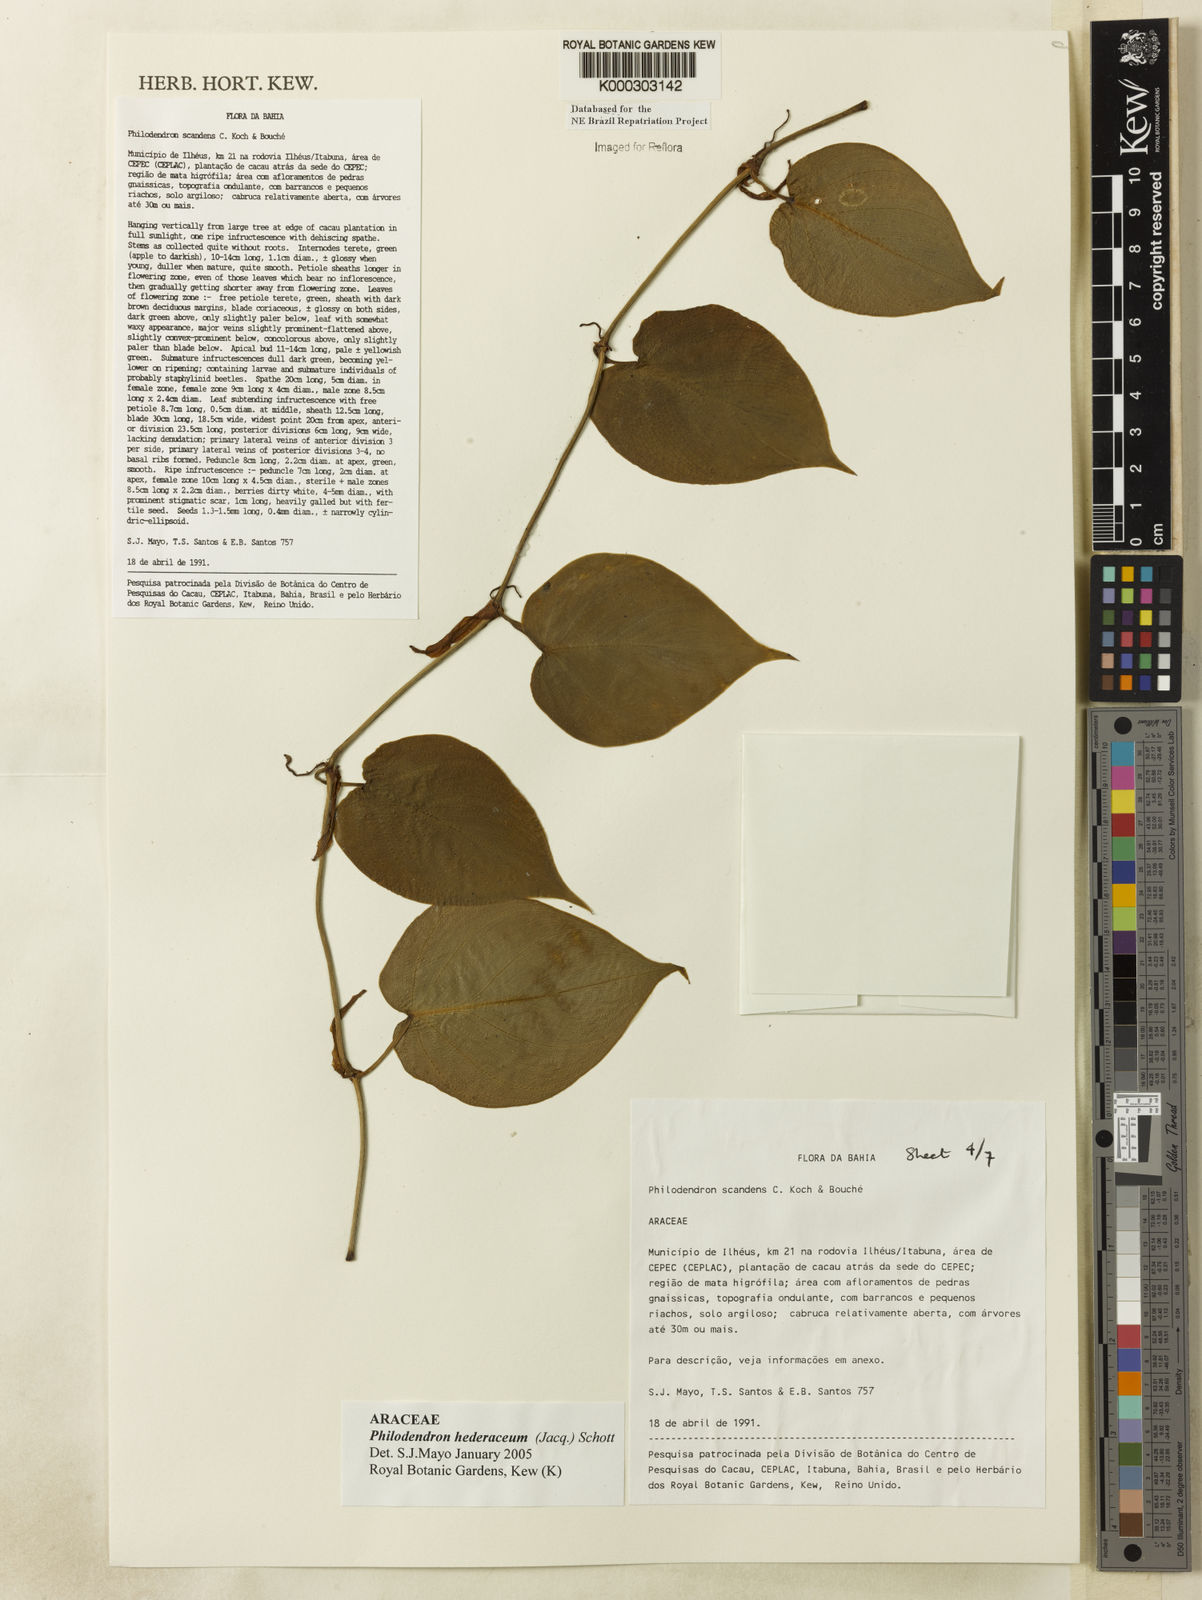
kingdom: Plantae
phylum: Tracheophyta
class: Liliopsida
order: Alismatales
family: Araceae
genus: Philodendron
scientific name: Philodendron hederaceum
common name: Vilevine
